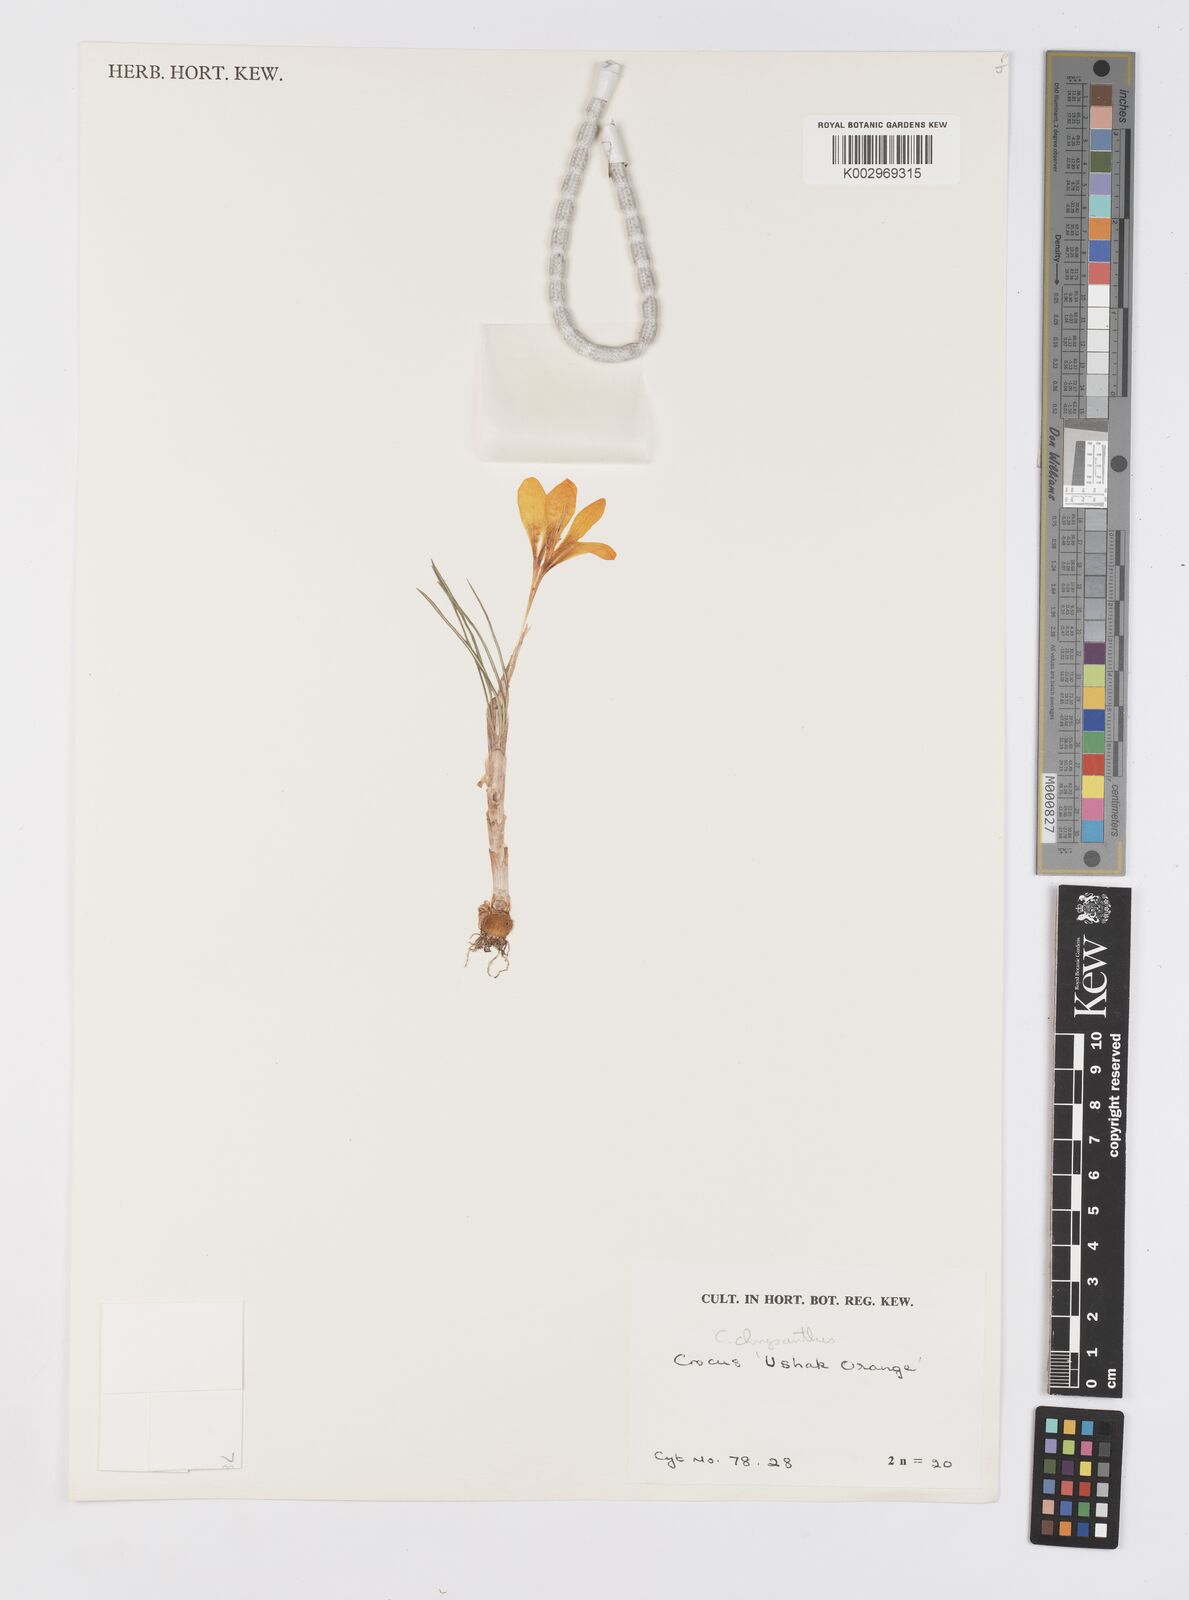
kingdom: Plantae
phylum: Tracheophyta
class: Liliopsida
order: Asparagales
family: Iridaceae
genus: Crocus
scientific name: Crocus chrysanthus
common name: Golden crocus
